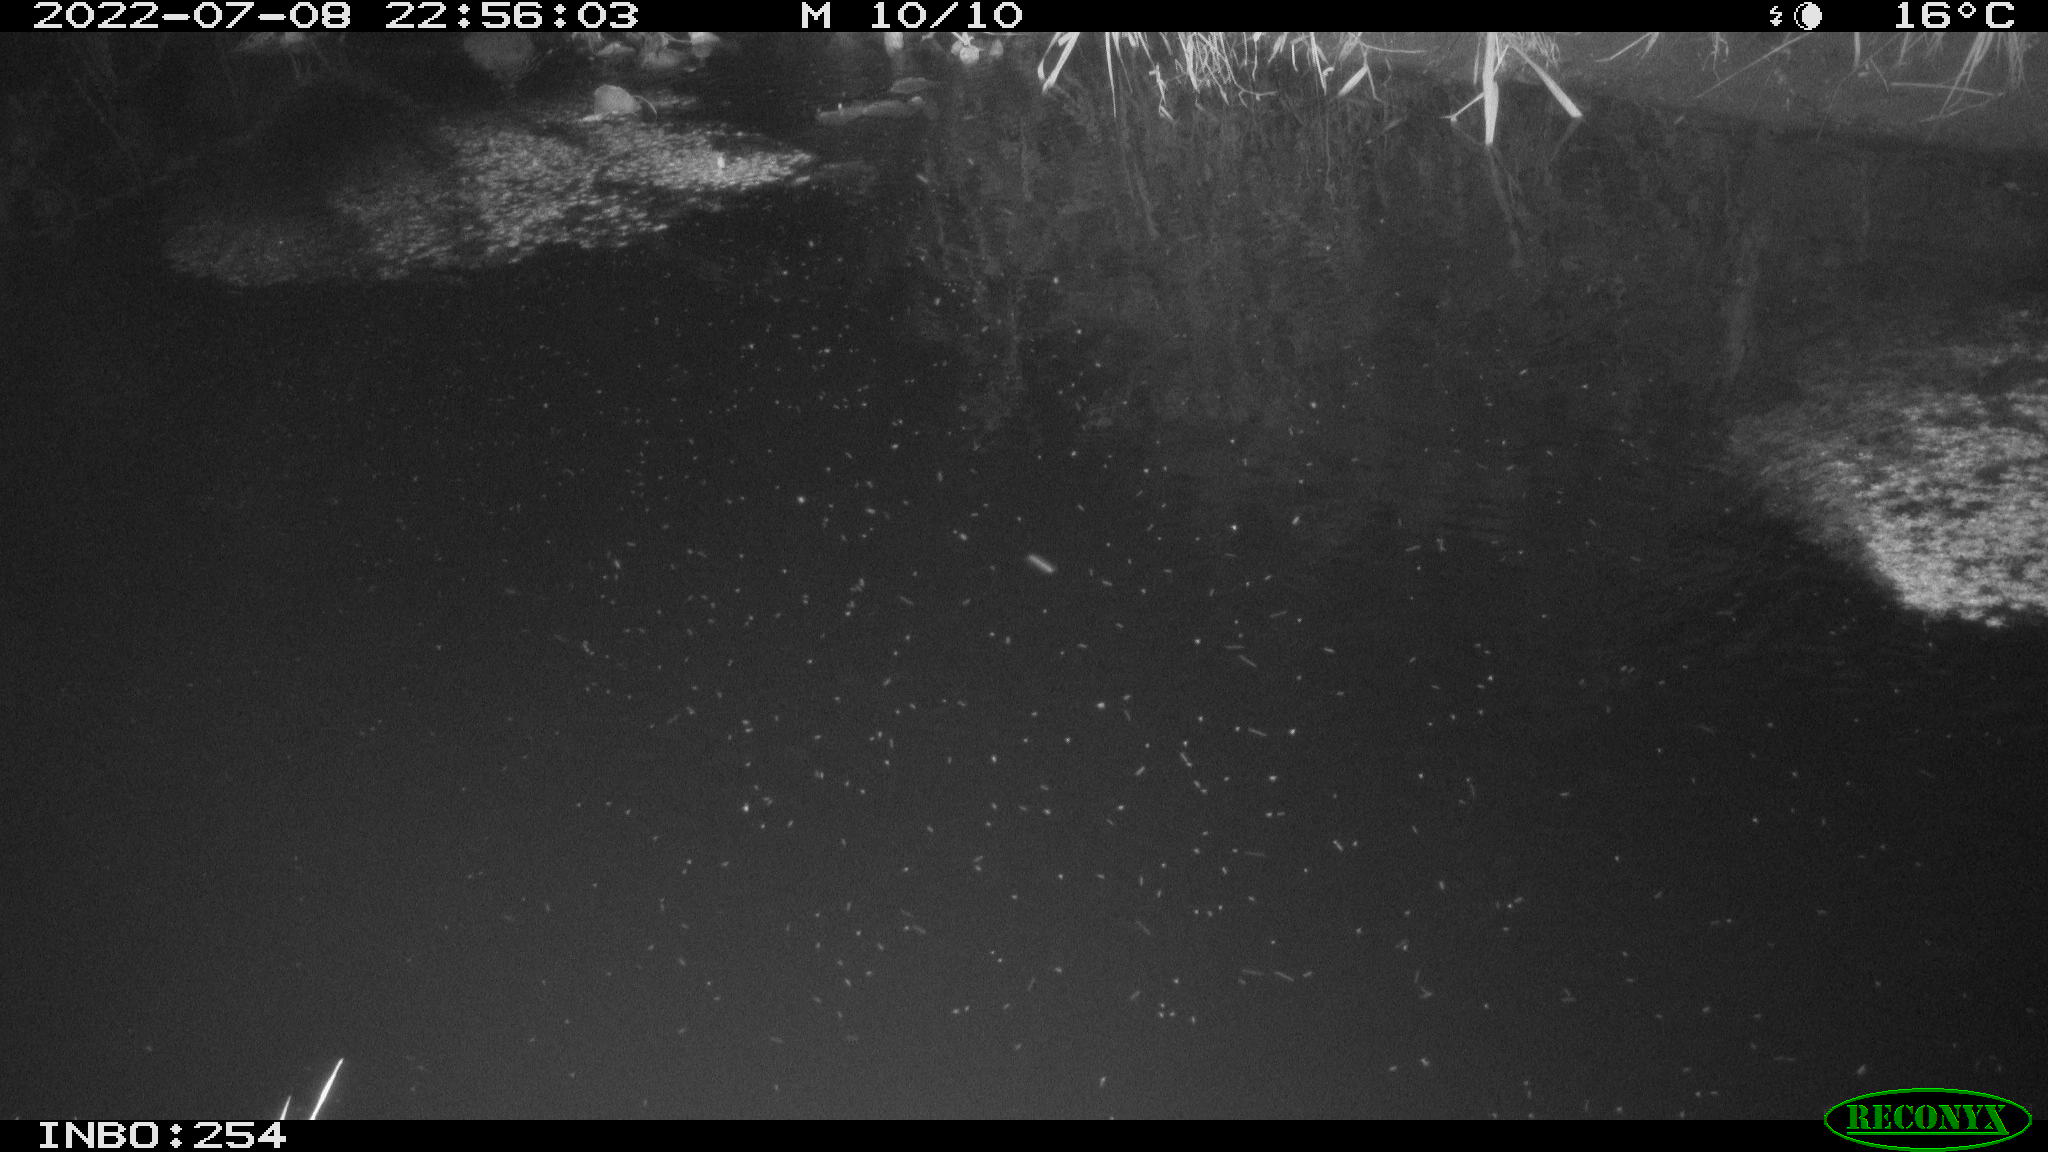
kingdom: Animalia
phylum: Chordata
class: Aves
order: Anseriformes
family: Anatidae
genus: Anas
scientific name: Anas platyrhynchos
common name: Mallard
